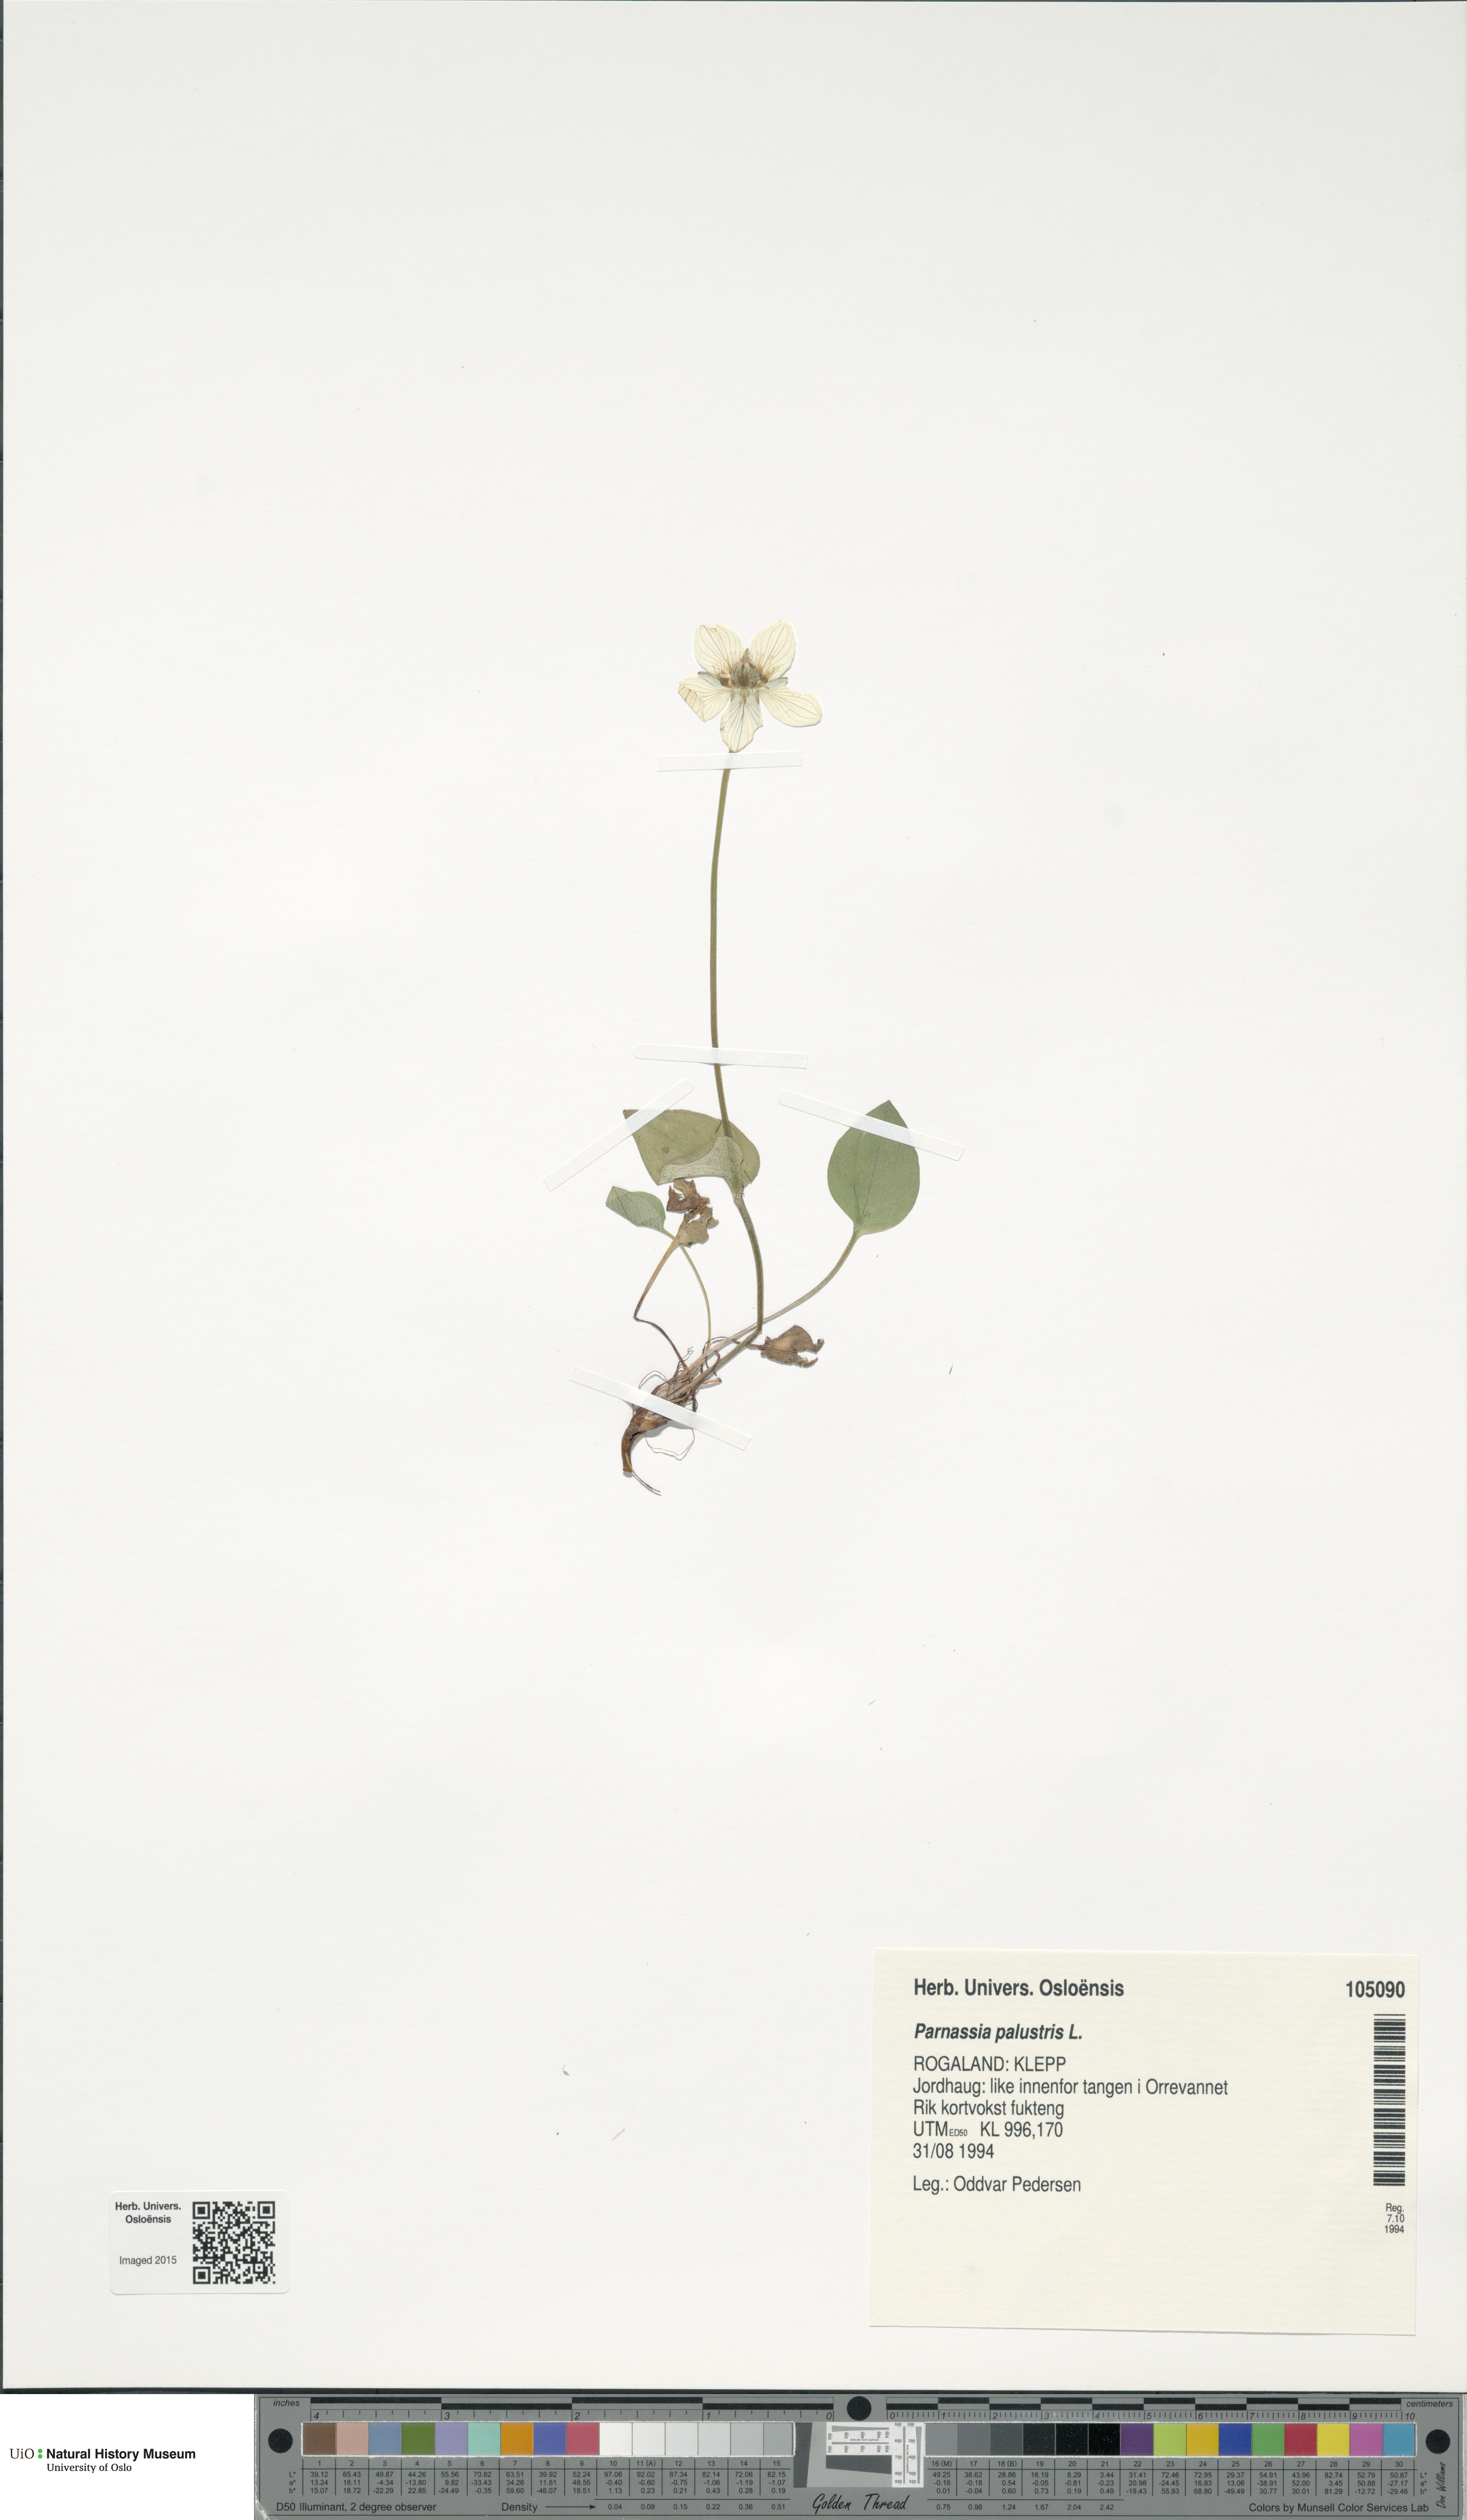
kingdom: Plantae
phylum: Tracheophyta
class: Magnoliopsida
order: Celastrales
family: Parnassiaceae
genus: Parnassia
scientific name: Parnassia palustris
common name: Grass-of-parnassus
